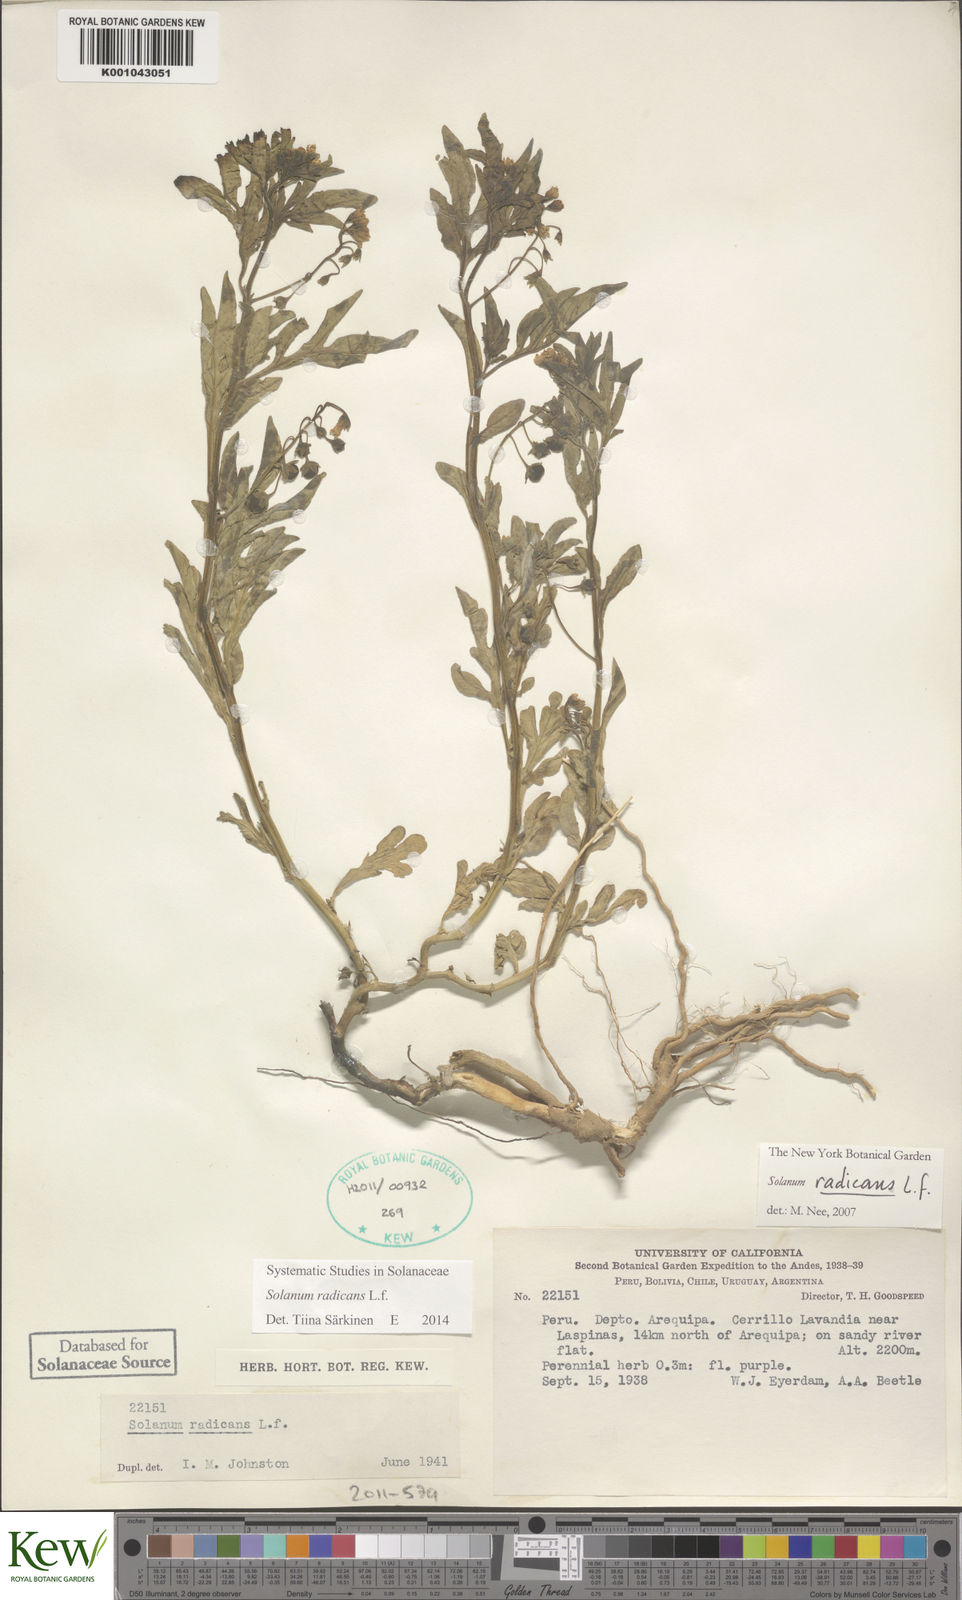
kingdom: Plantae
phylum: Tracheophyta
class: Magnoliopsida
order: Solanales
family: Solanaceae
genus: Solanum
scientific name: Solanum radicans
